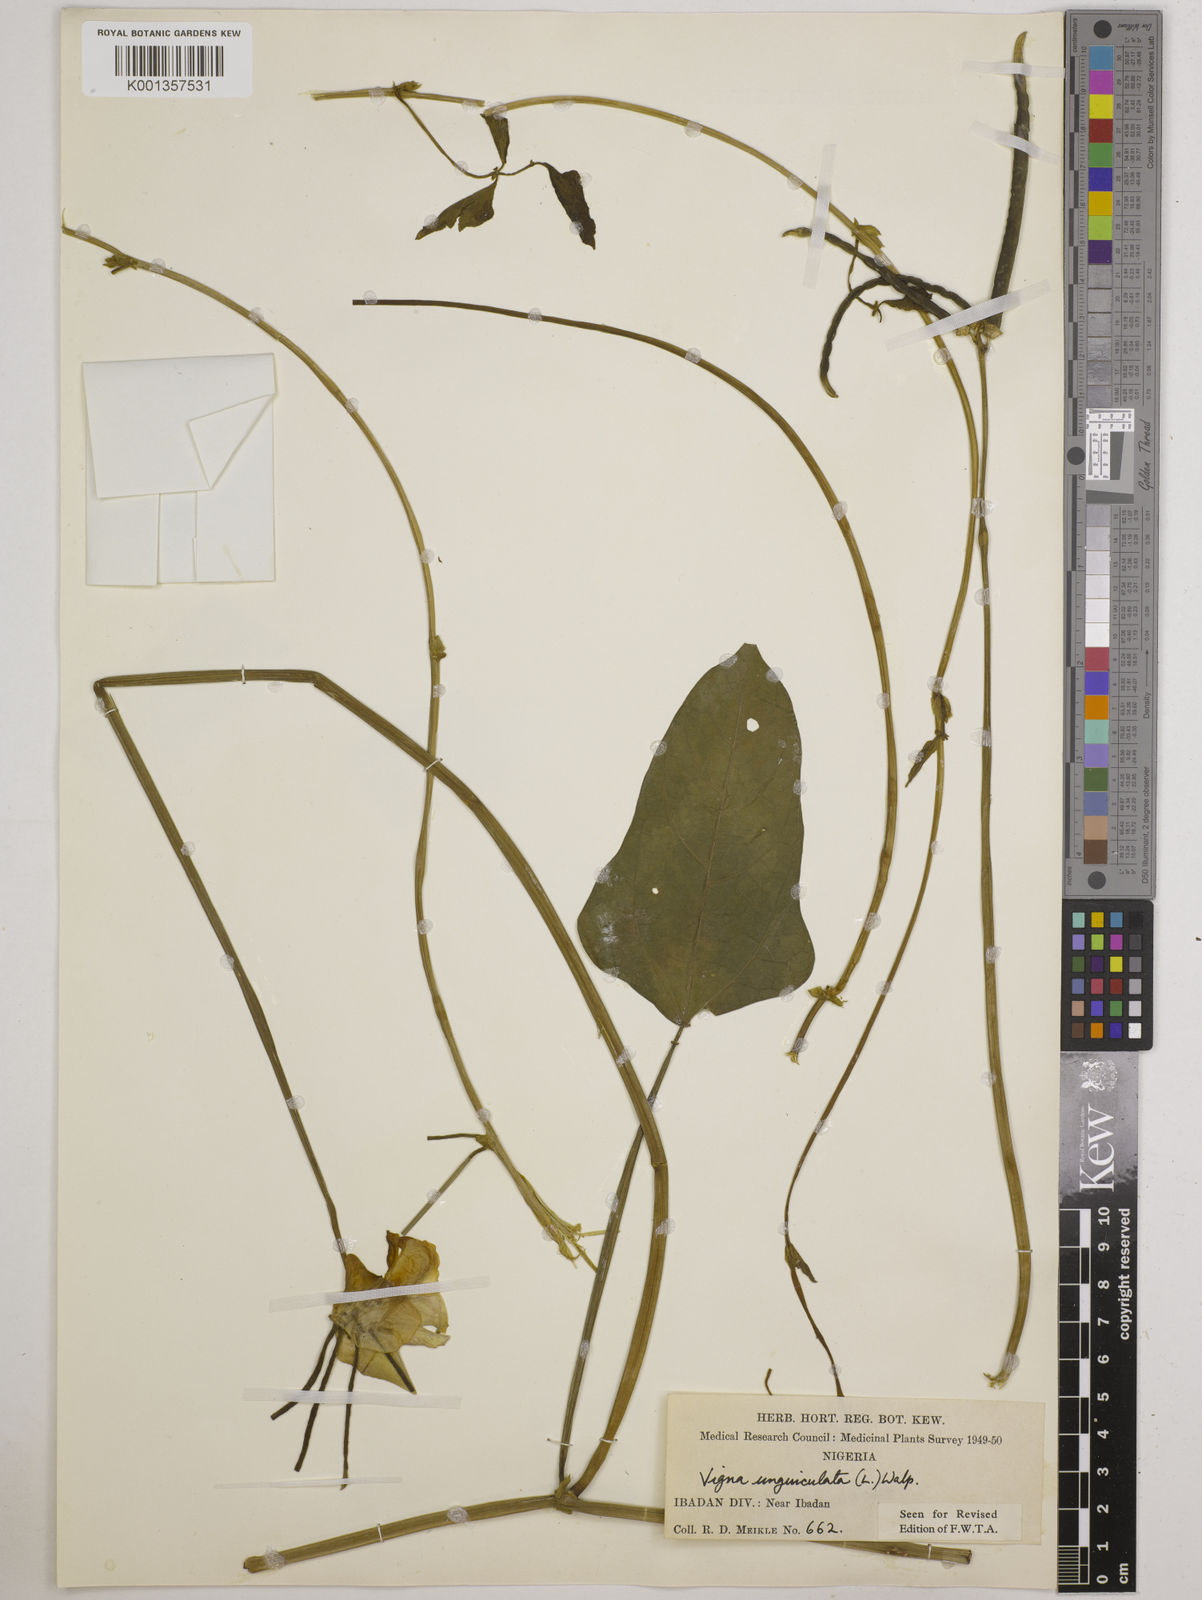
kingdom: Plantae
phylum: Tracheophyta
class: Magnoliopsida
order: Fabales
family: Fabaceae
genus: Vigna
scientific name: Vigna
